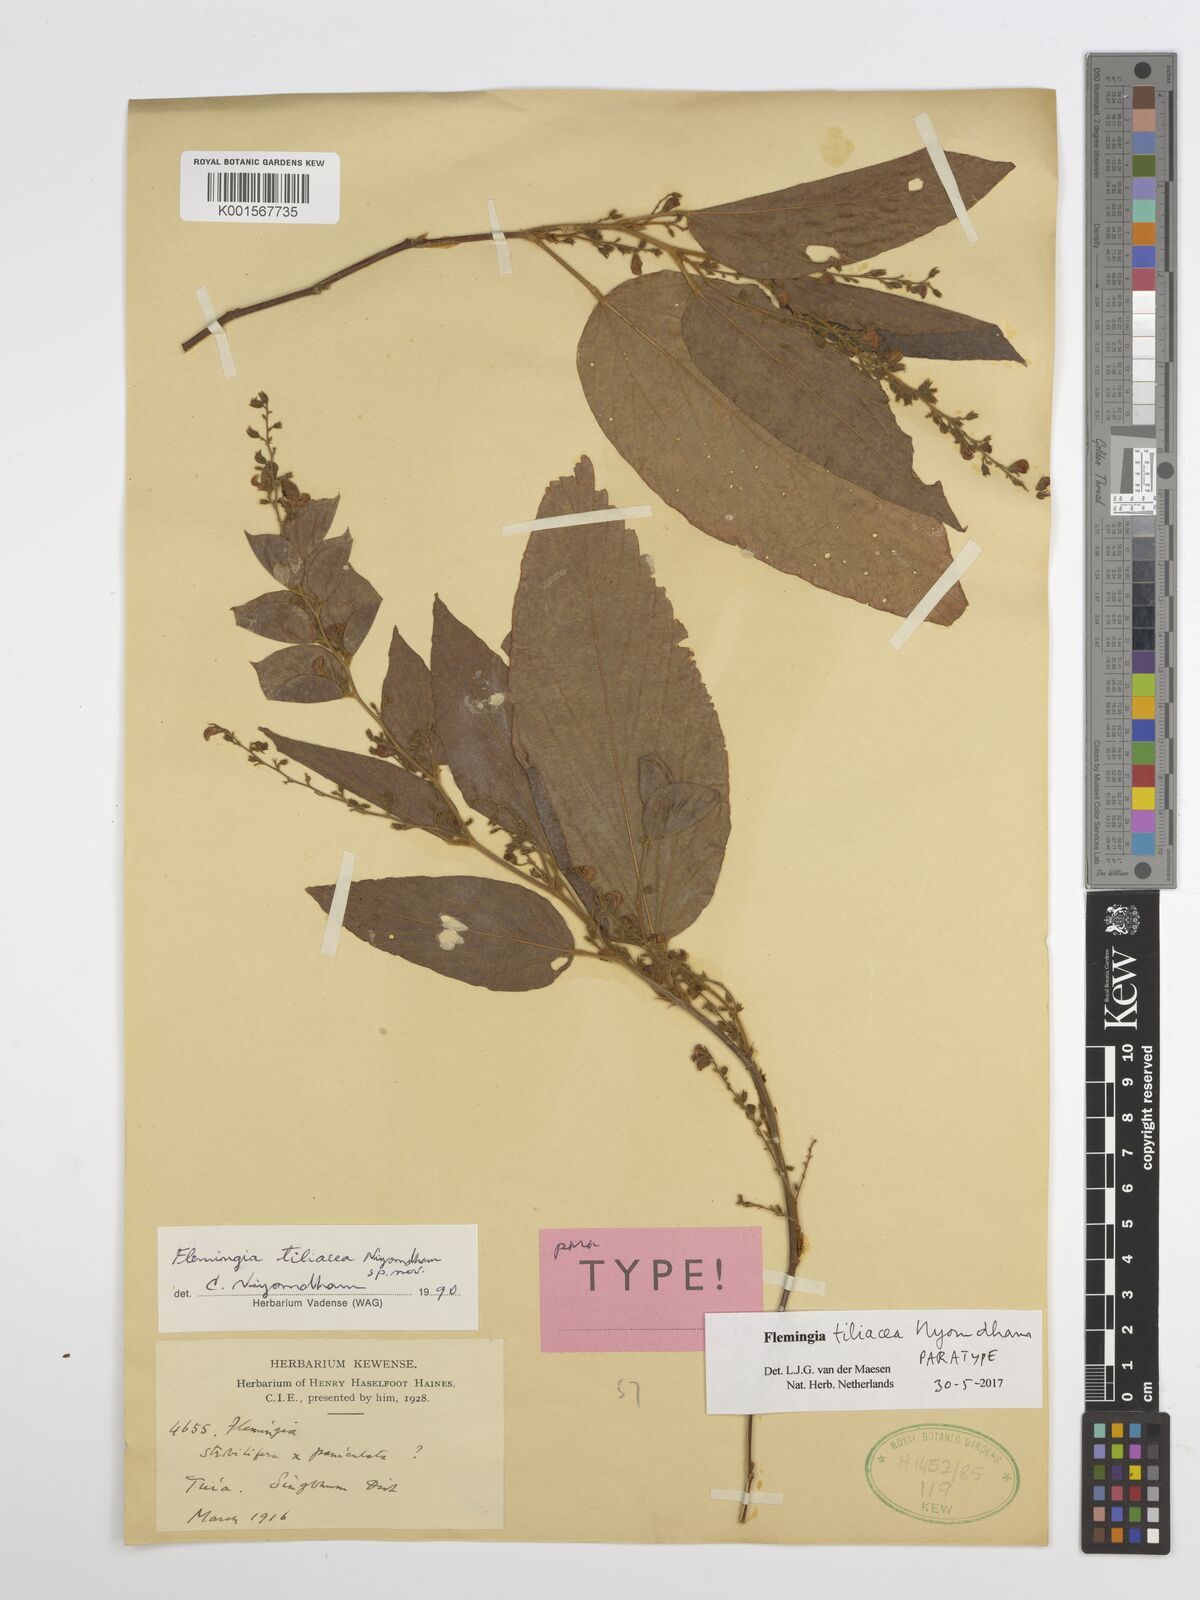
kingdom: Plantae
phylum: Tracheophyta
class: Magnoliopsida
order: Fabales
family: Fabaceae
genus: Flemingia
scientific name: Flemingia tiliacea
